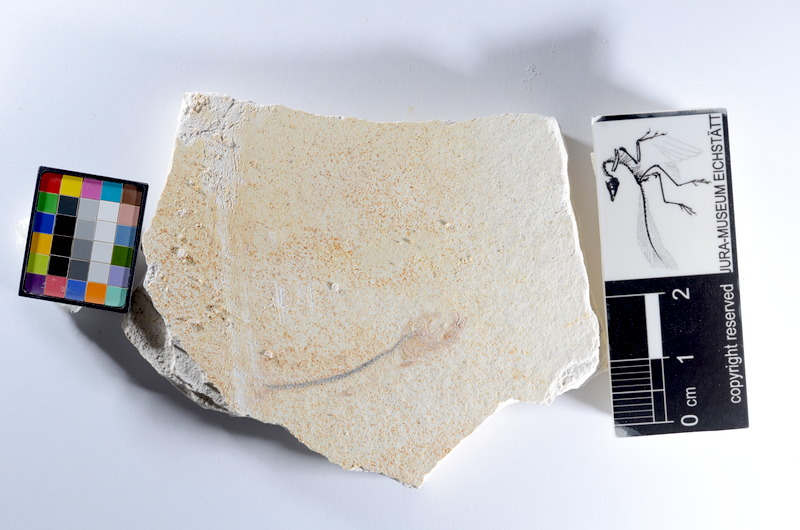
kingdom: Animalia
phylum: Chordata
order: Salmoniformes
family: Orthogonikleithridae
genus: Orthogonikleithrus
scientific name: Orthogonikleithrus hoelli
